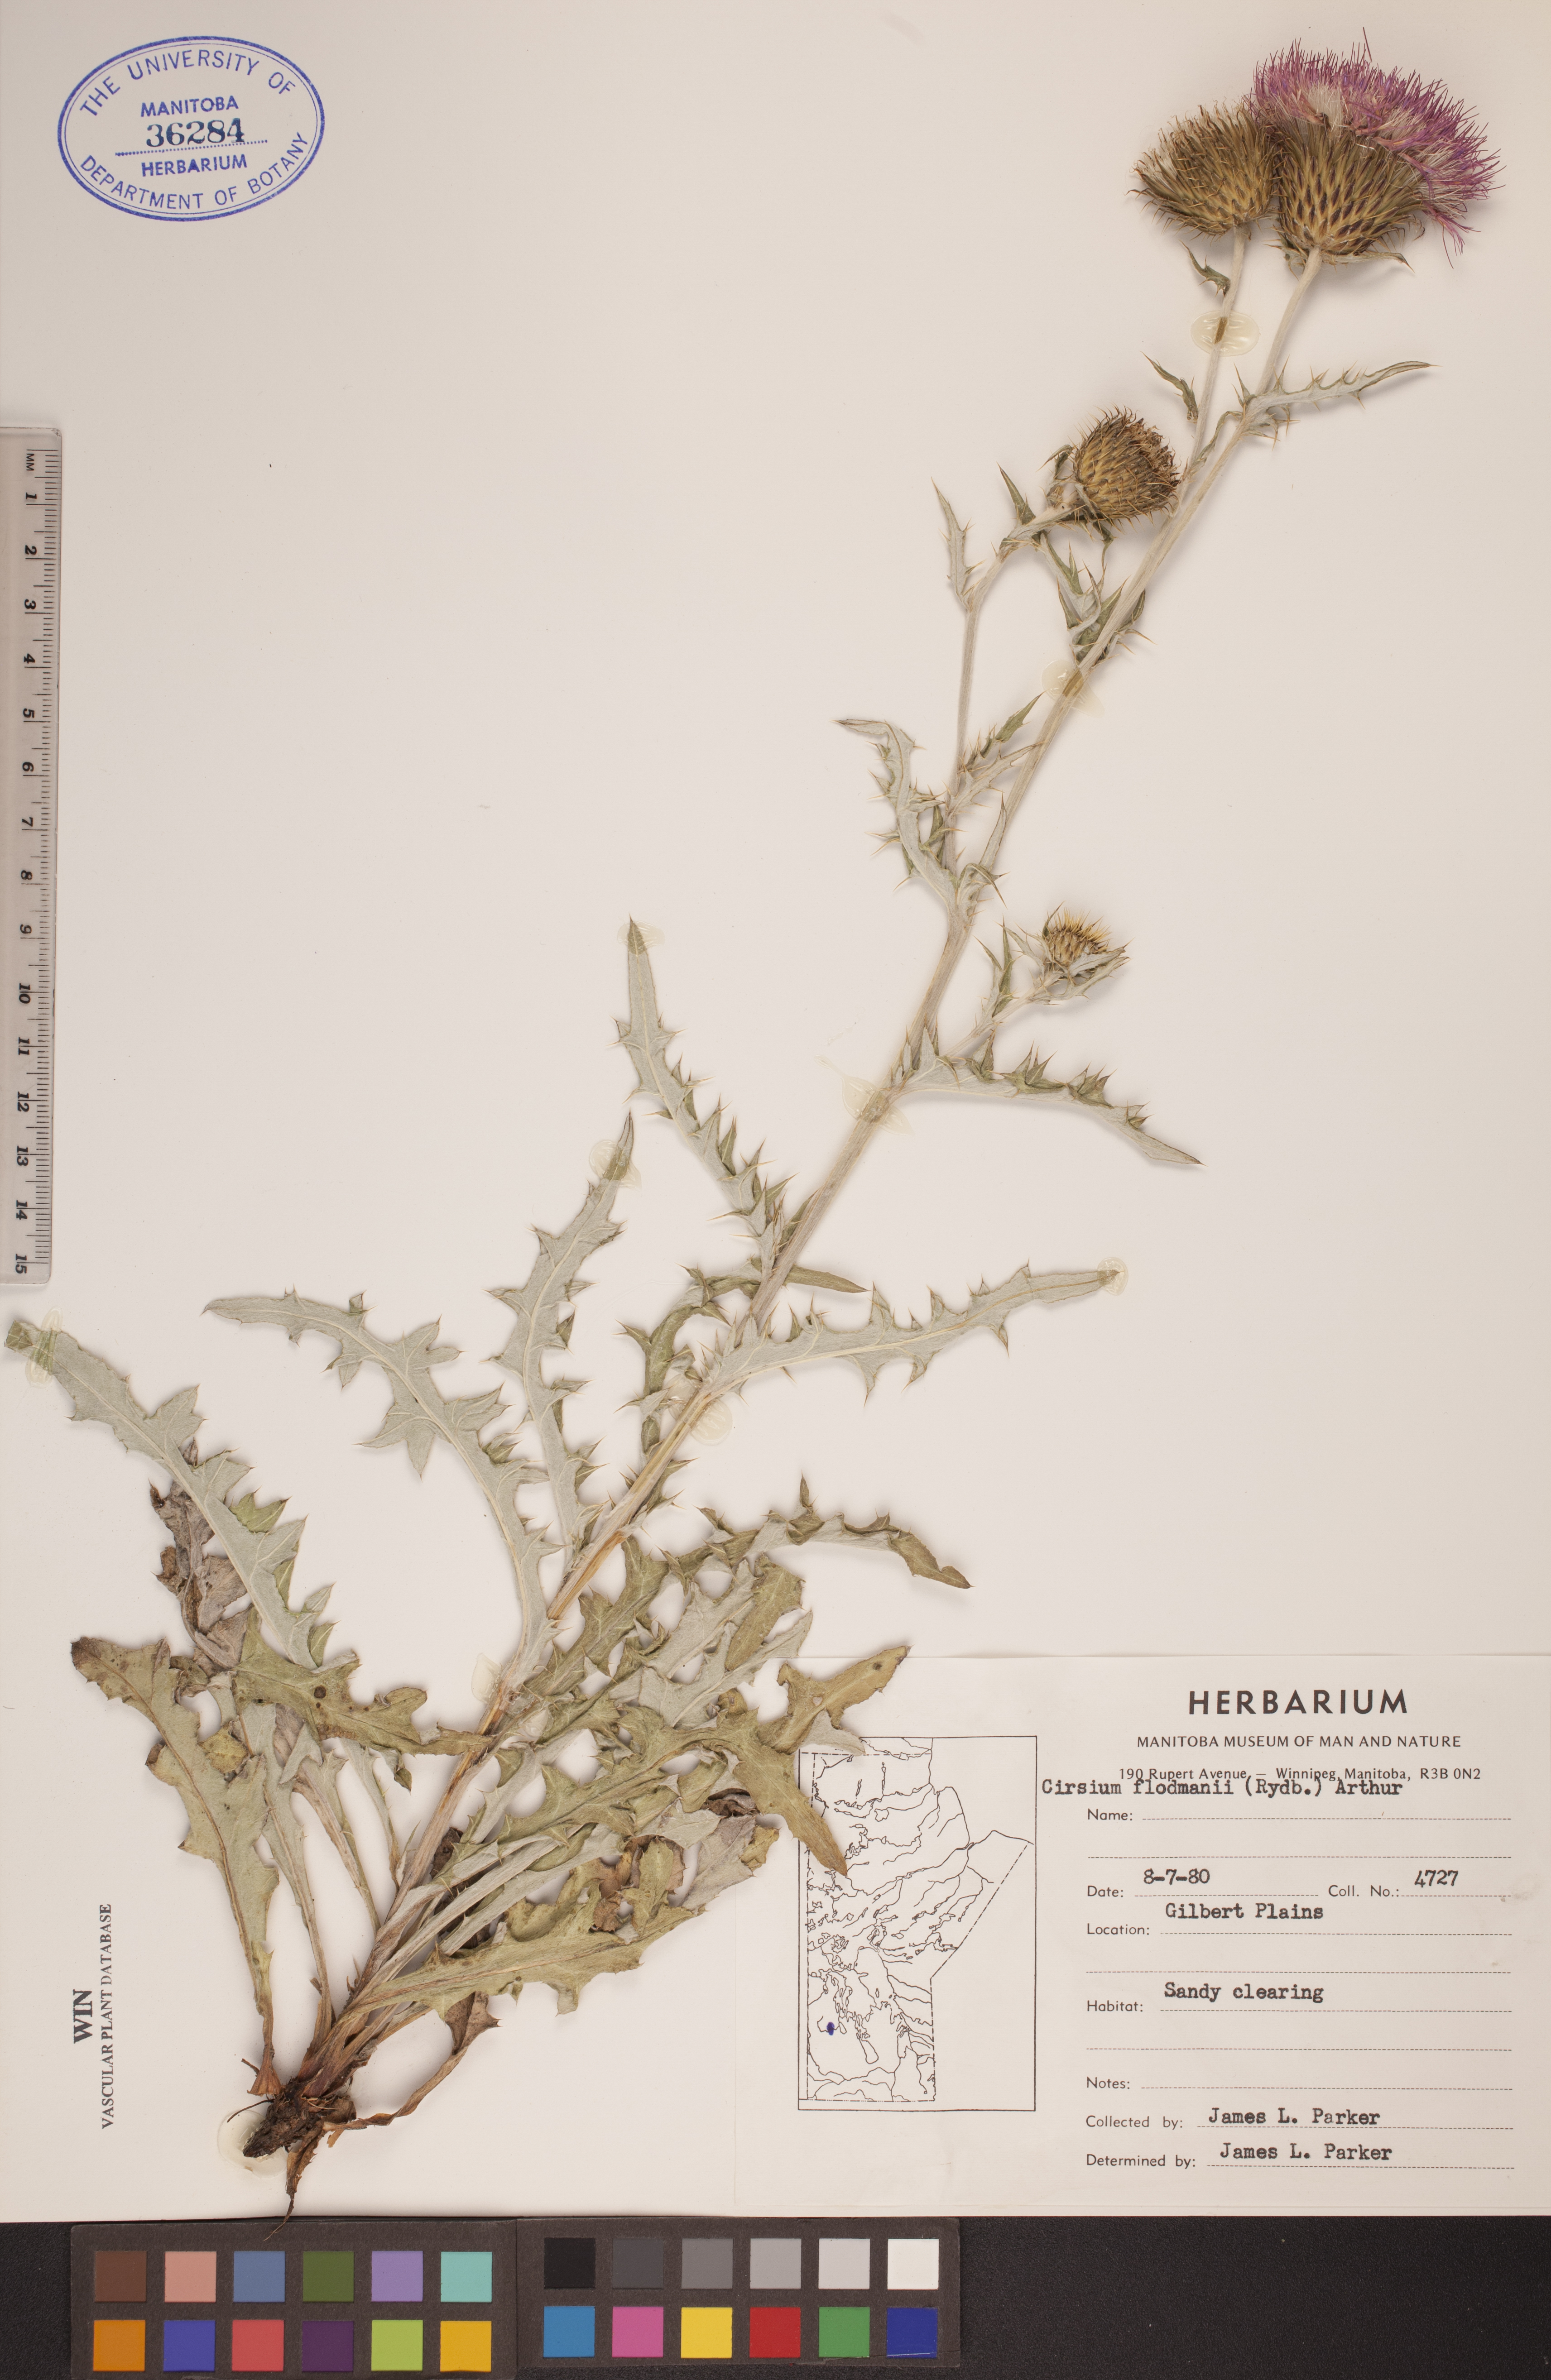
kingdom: Plantae
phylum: Tracheophyta
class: Magnoliopsida
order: Asterales
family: Asteraceae
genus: Cirsium
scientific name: Cirsium flodmanii
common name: Flodman's thistle
